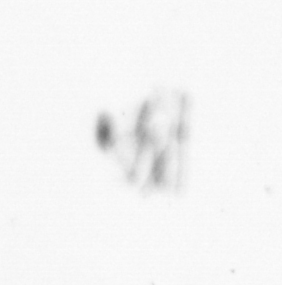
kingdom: Chromista
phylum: Ochrophyta
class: Bacillariophyceae
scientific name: Bacillariophyceae
